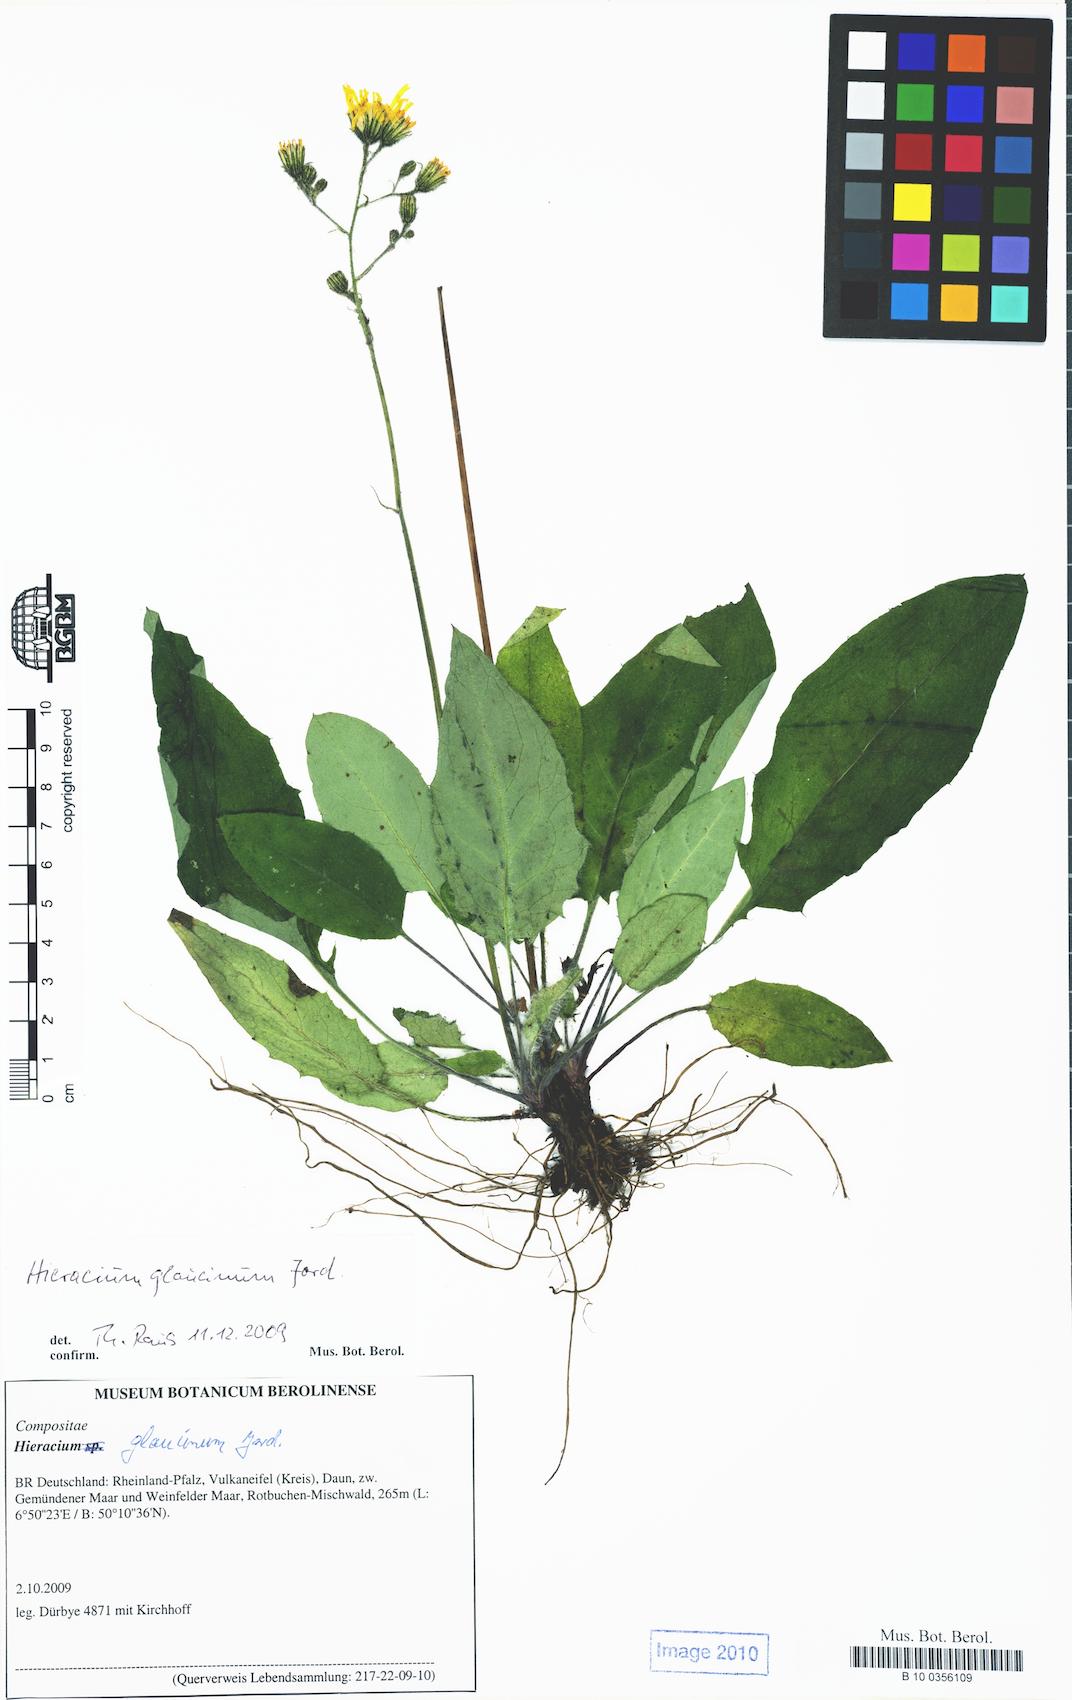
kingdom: Plantae
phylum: Tracheophyta
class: Magnoliopsida
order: Asterales
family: Asteraceae
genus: Hieracium
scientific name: Hieracium glaucinum
